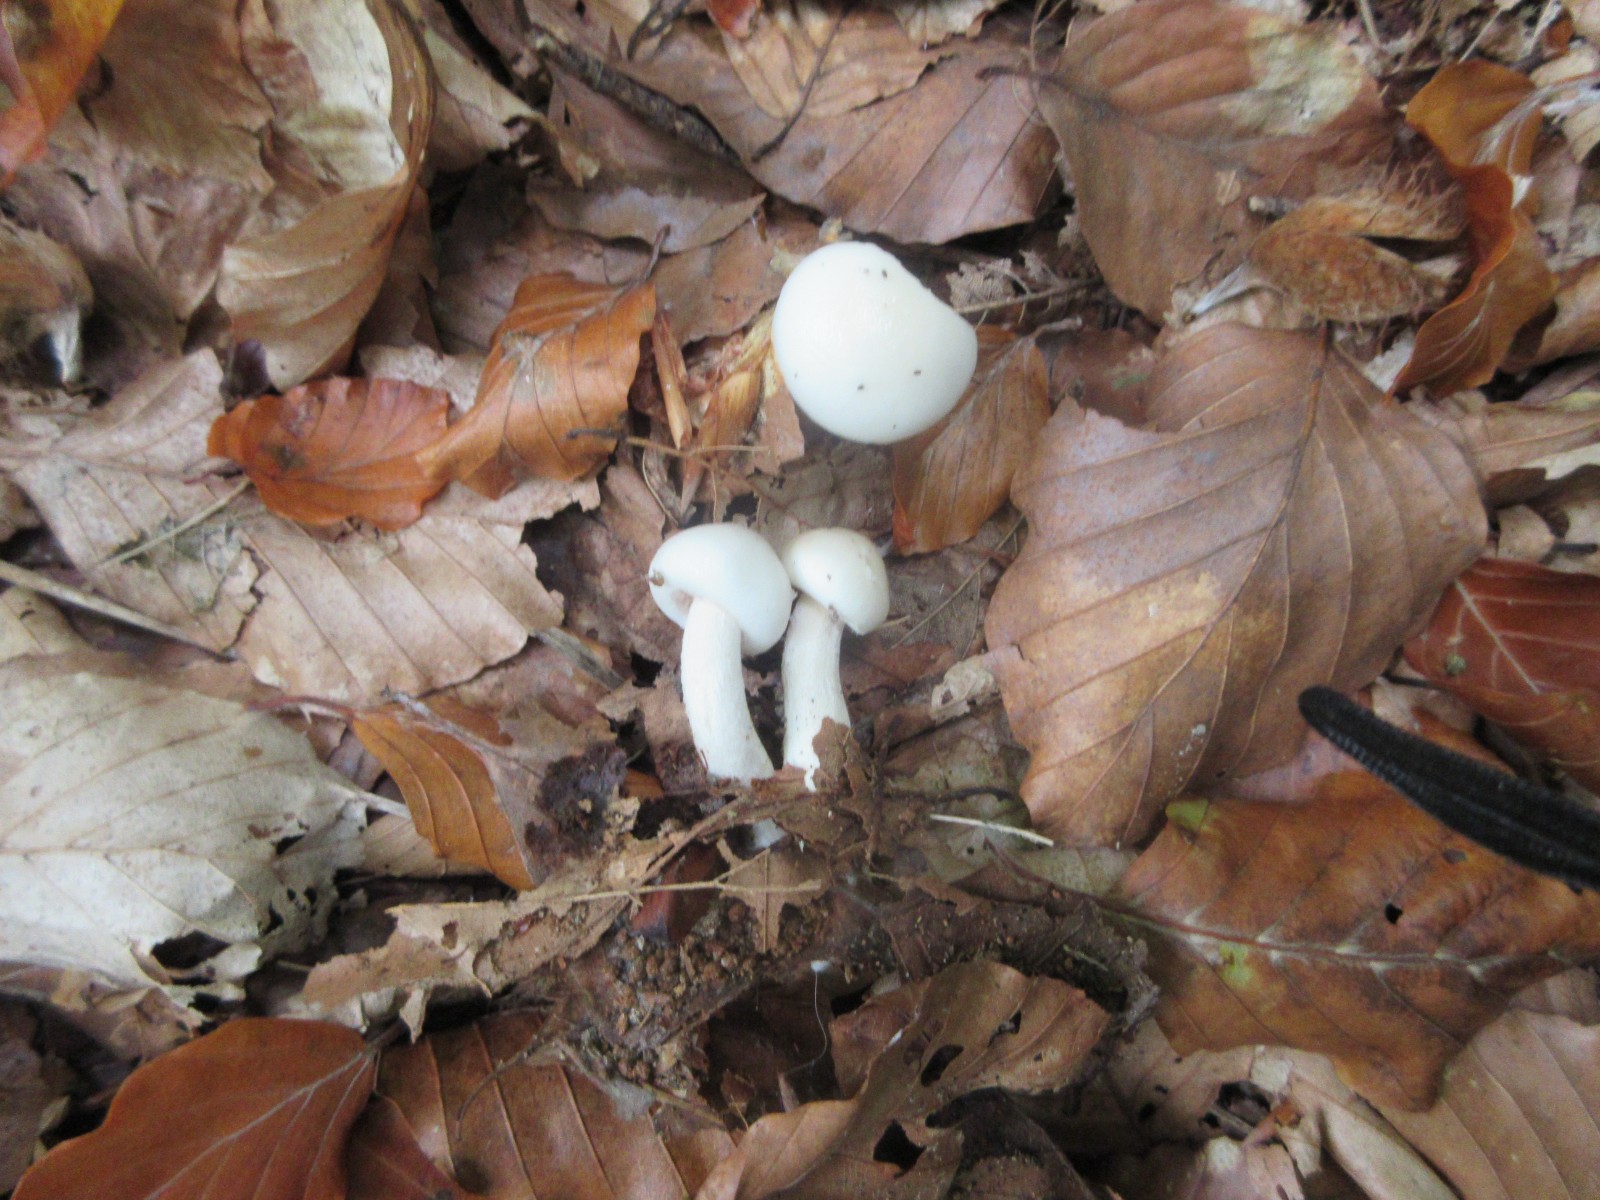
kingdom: Fungi
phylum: Basidiomycota
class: Agaricomycetes
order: Agaricales
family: Hygrophoraceae
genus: Hygrophorus
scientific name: Hygrophorus eburneus
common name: elfenbens-sneglehat
